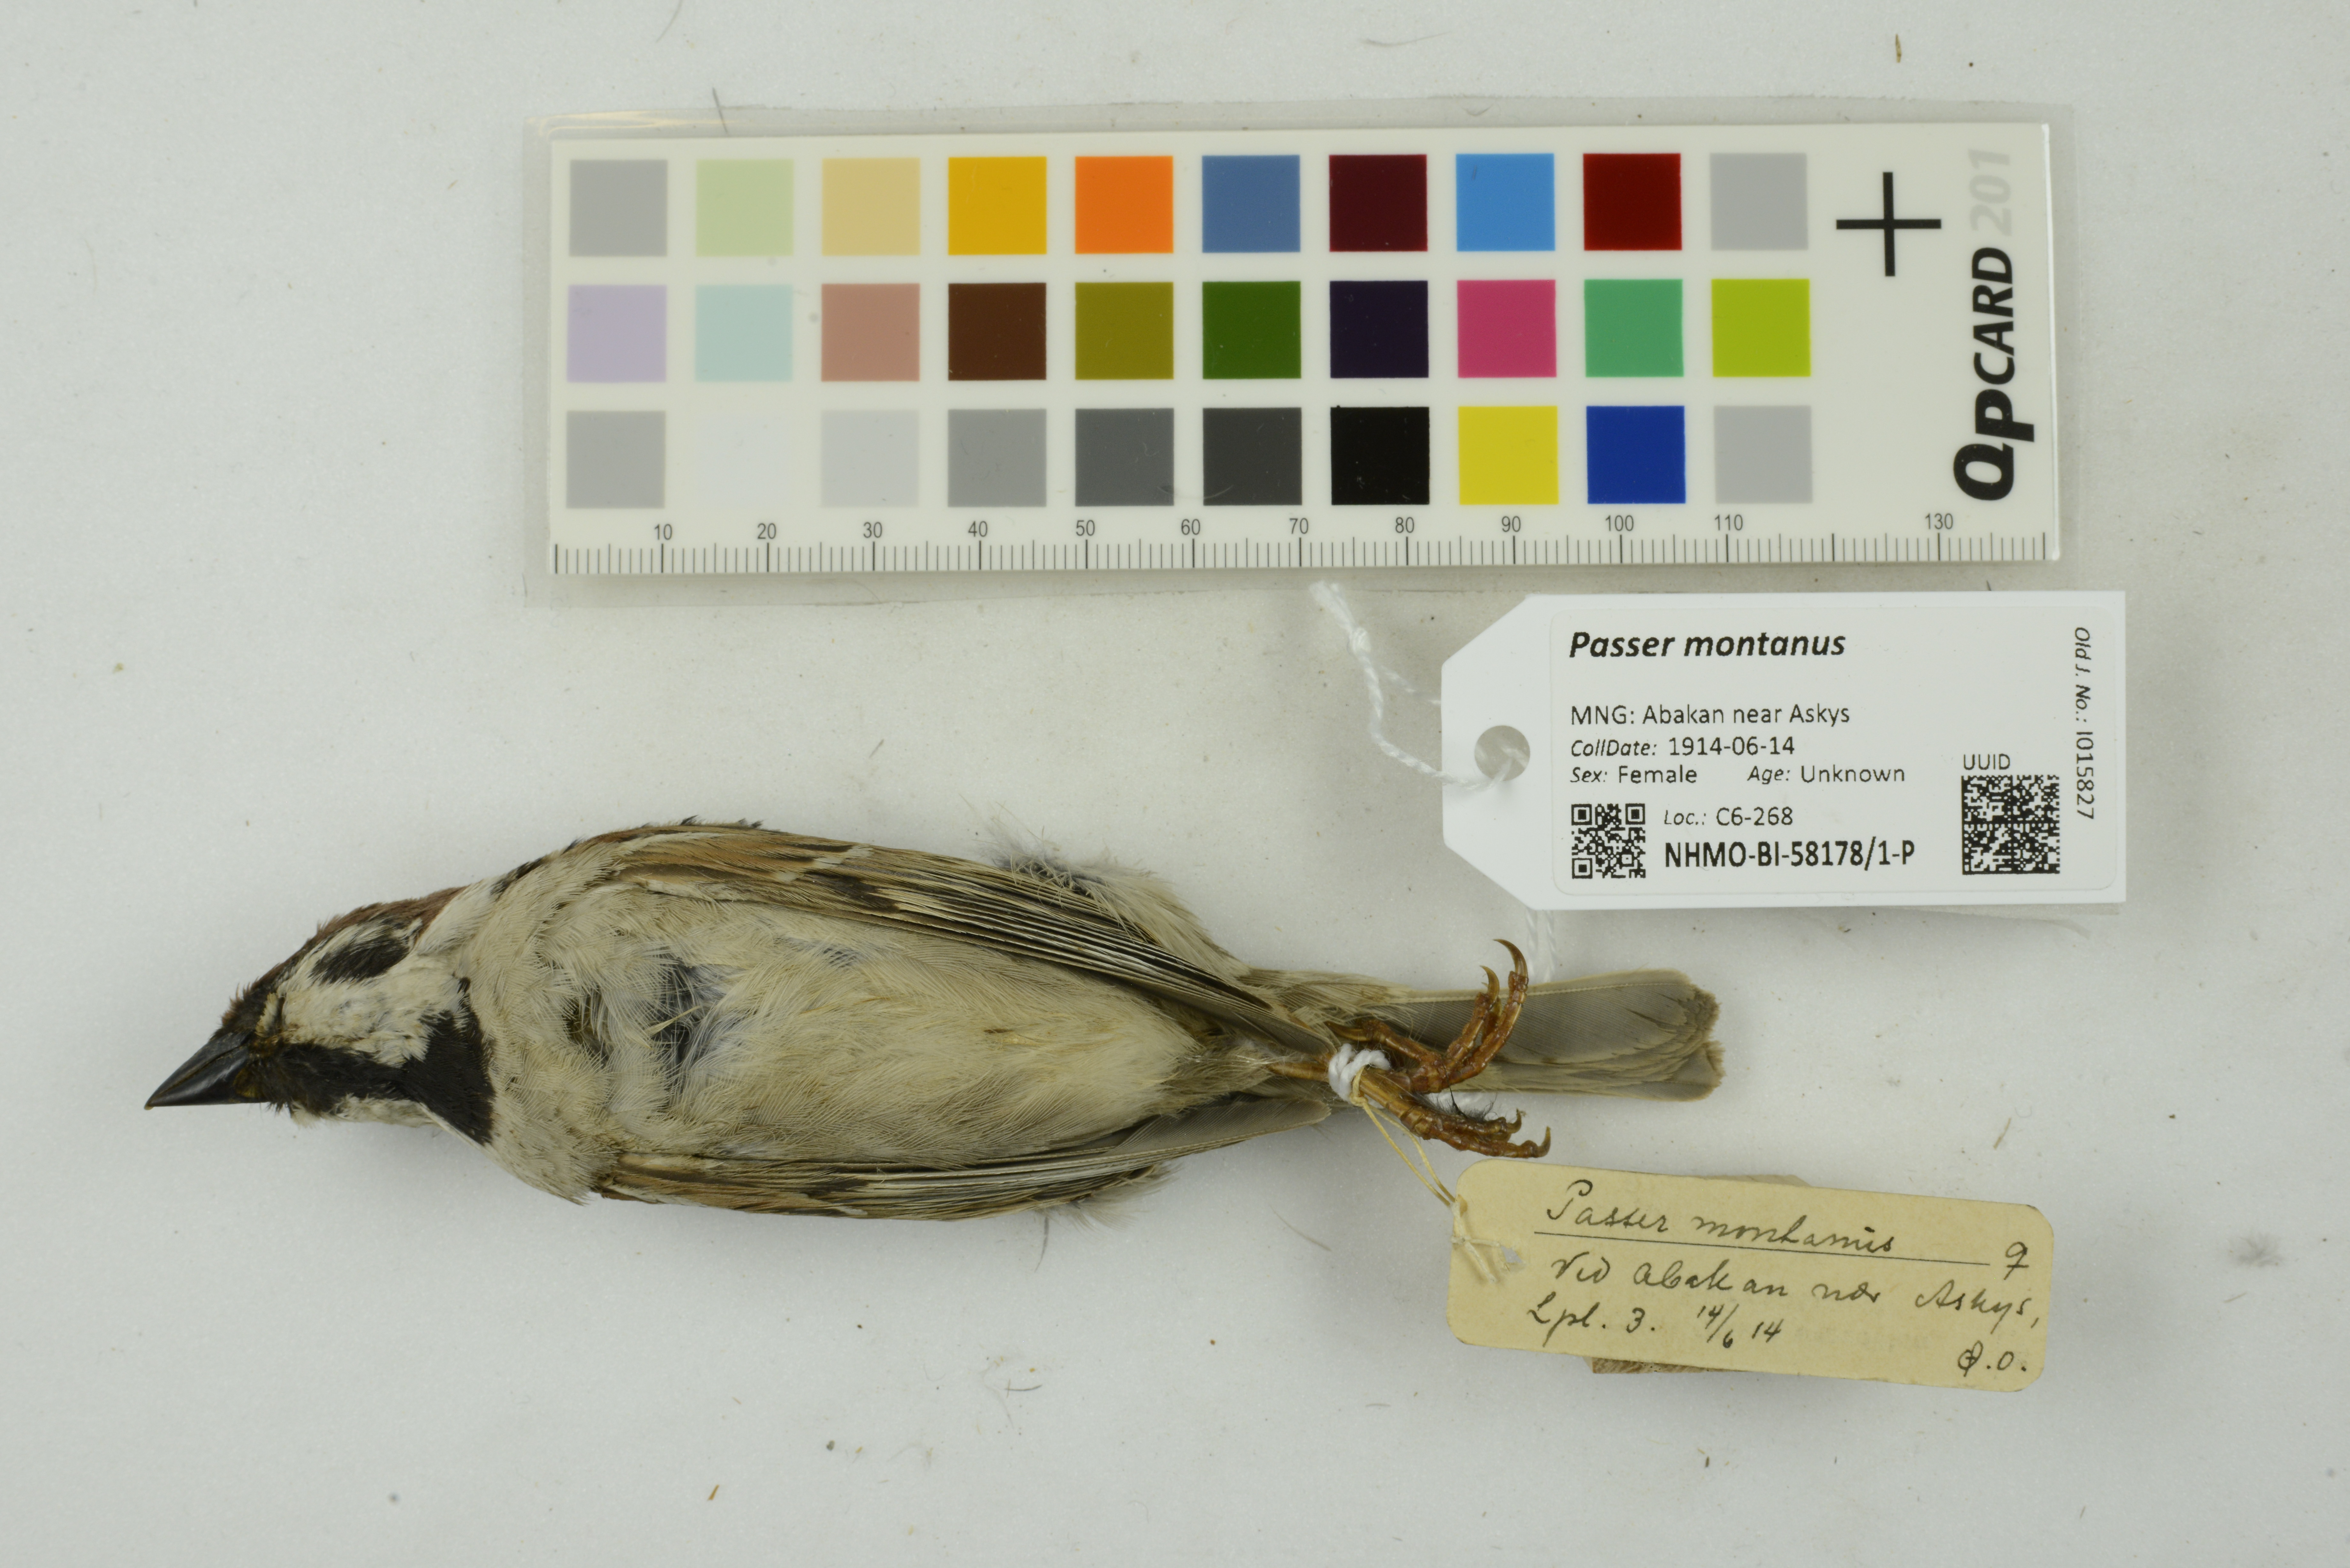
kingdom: Animalia
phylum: Chordata
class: Aves
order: Passeriformes
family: Passeridae
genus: Passer
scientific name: Passer montanus
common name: Eurasian tree sparrow
